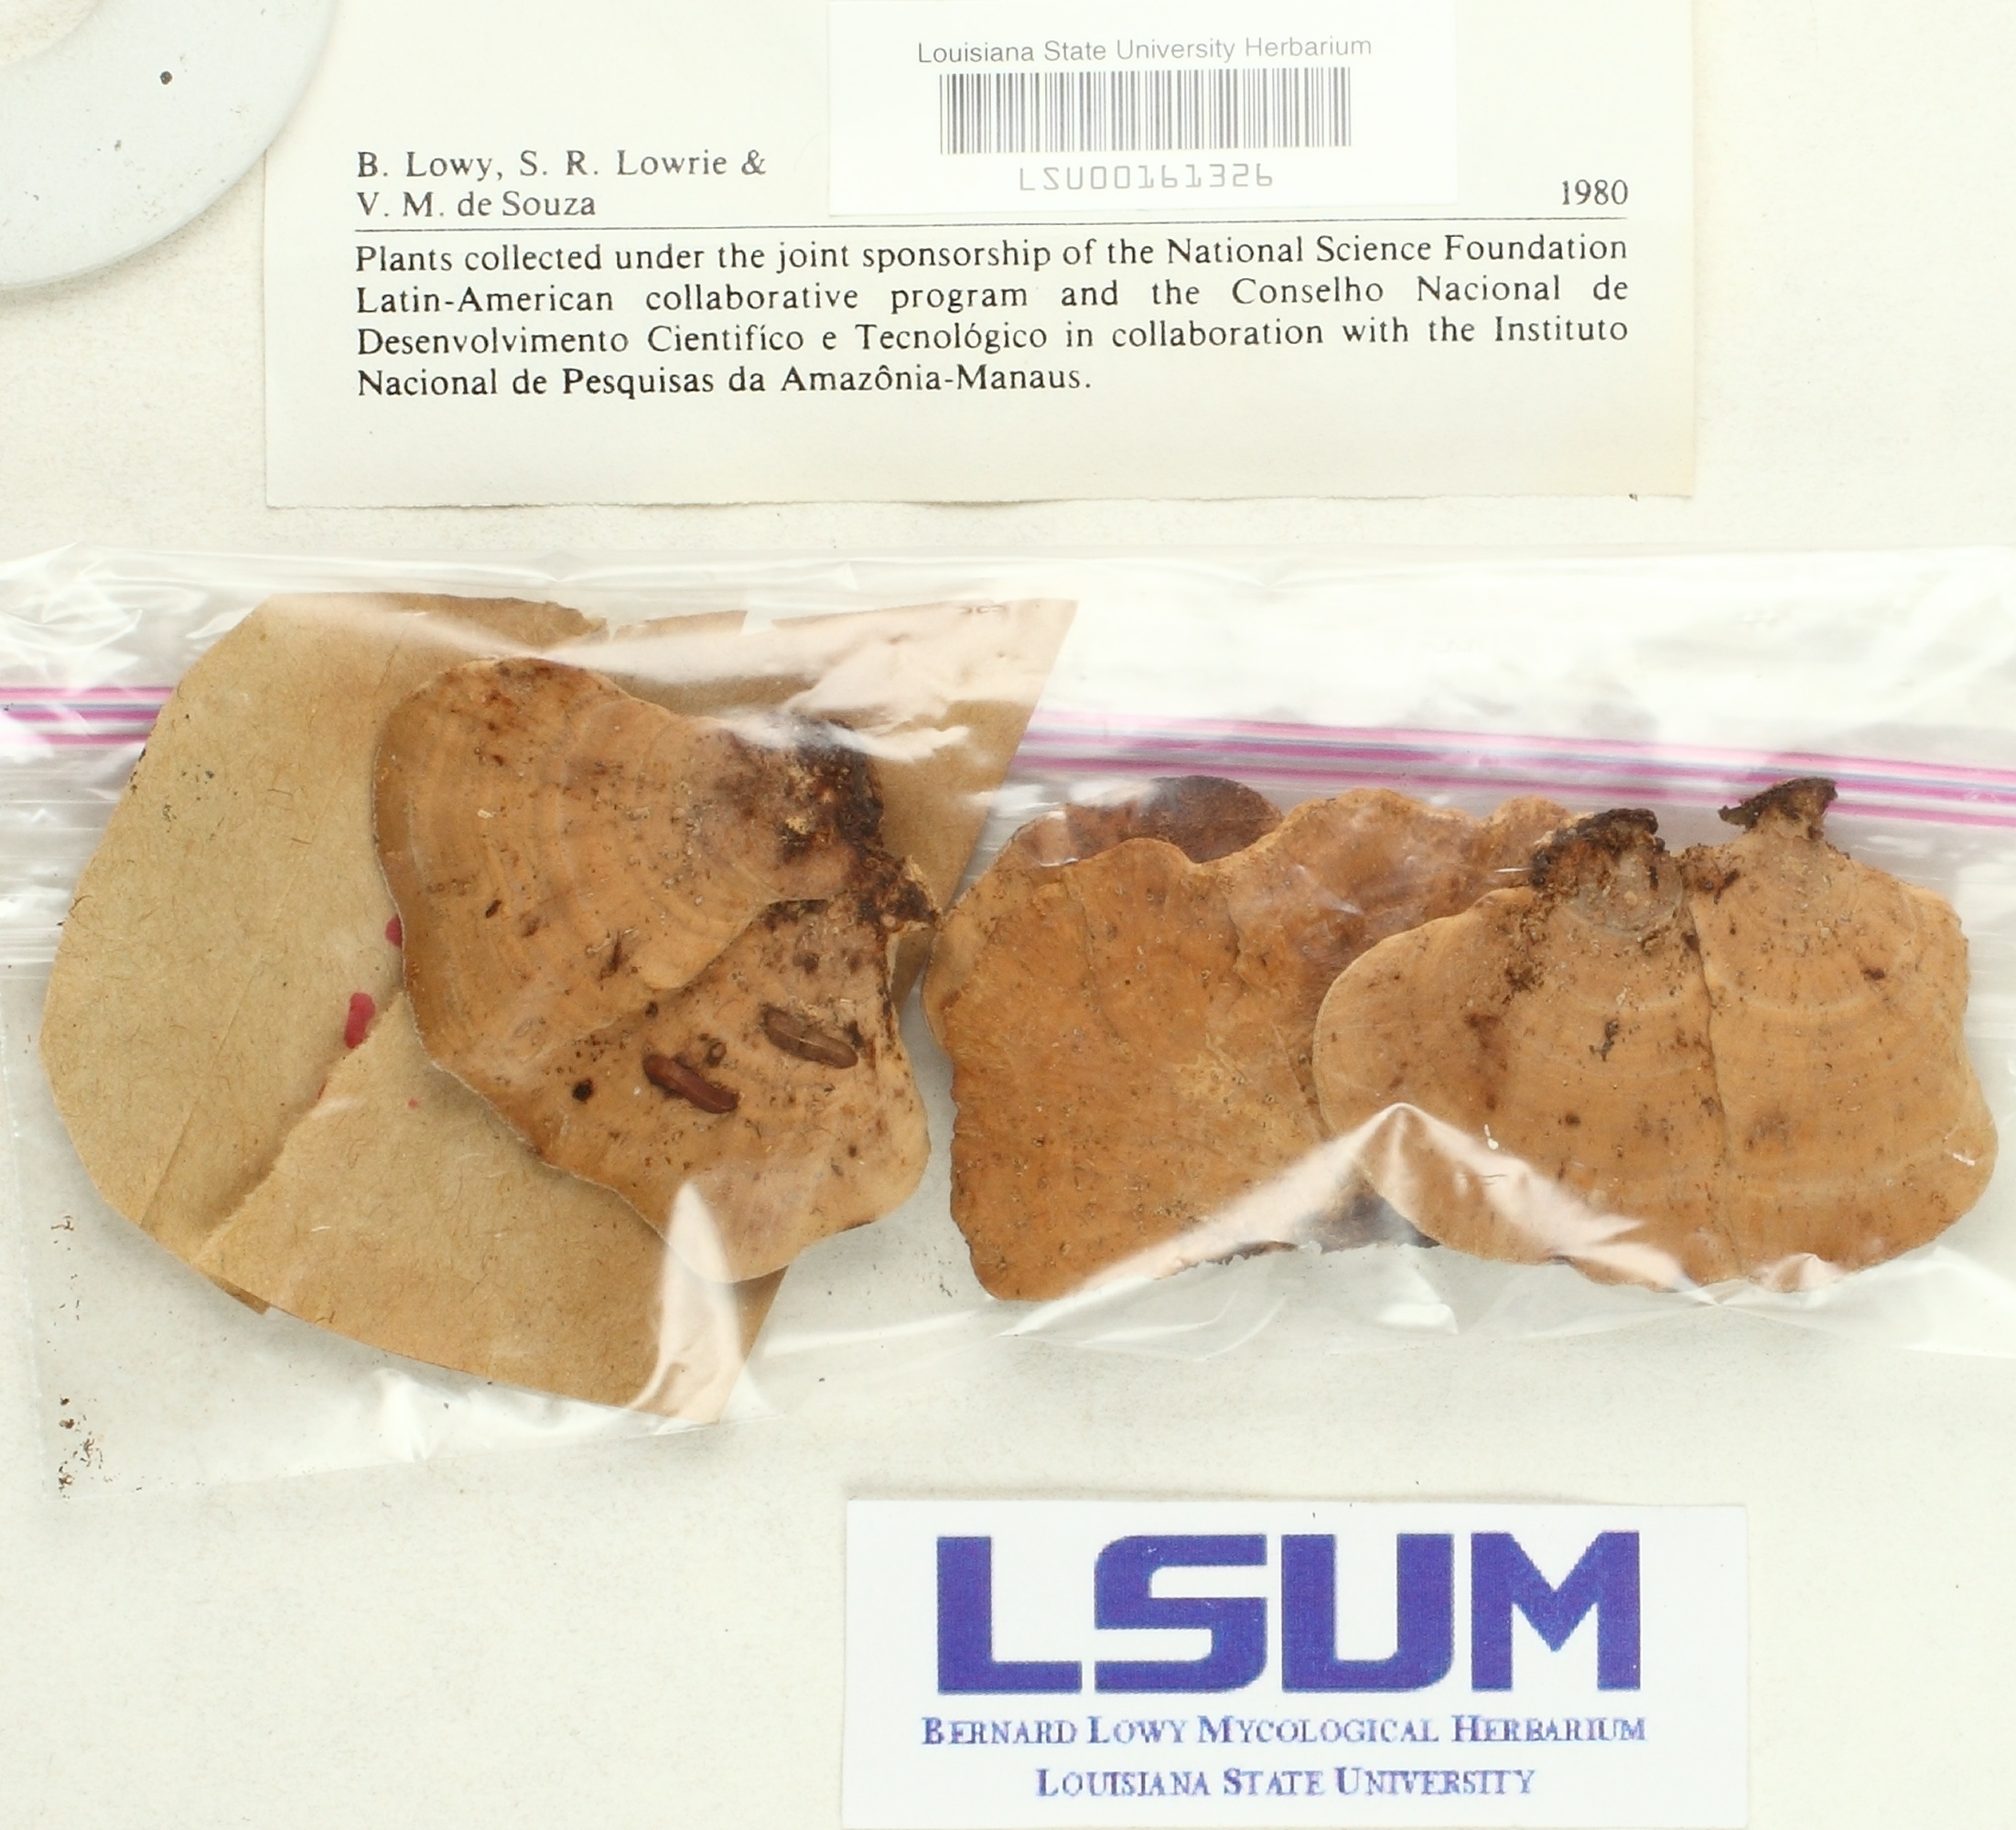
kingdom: Fungi
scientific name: Fungi
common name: Fungi
